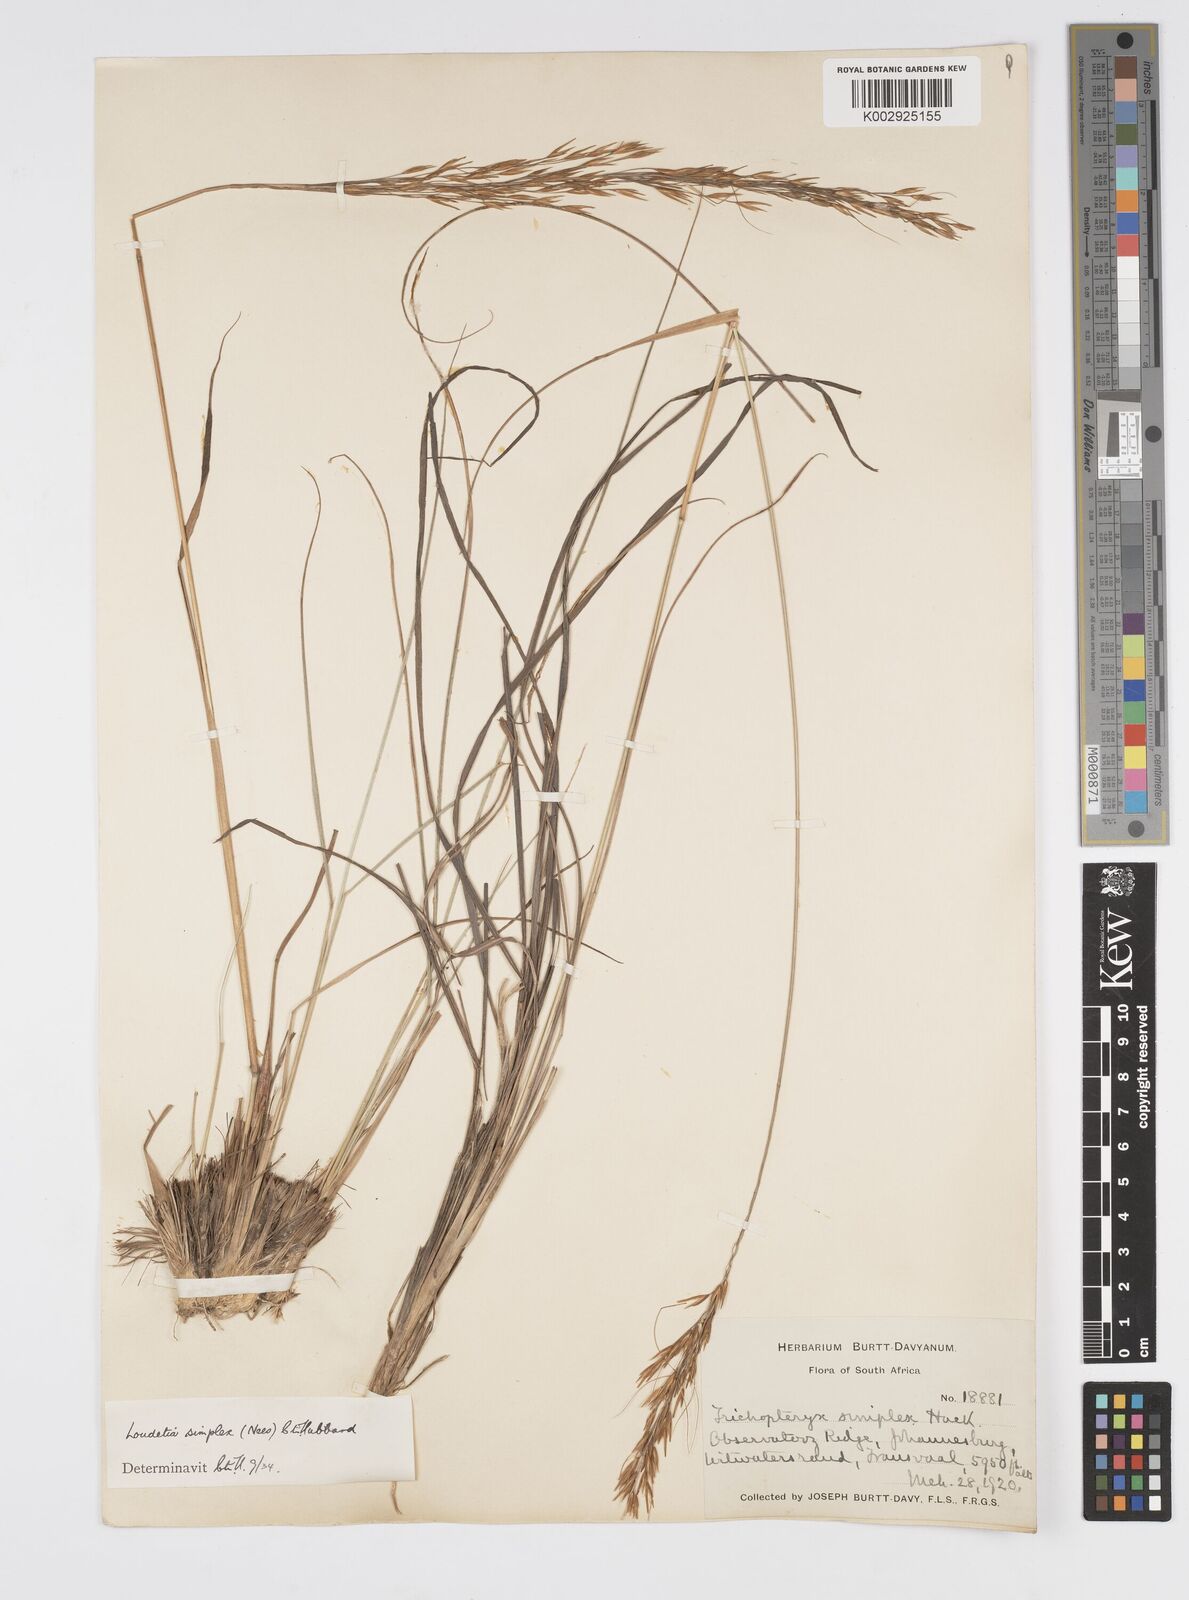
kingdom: Plantae
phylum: Tracheophyta
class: Liliopsida
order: Poales
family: Poaceae
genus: Loudetia
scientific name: Loudetia simplex
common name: Common russet grass
